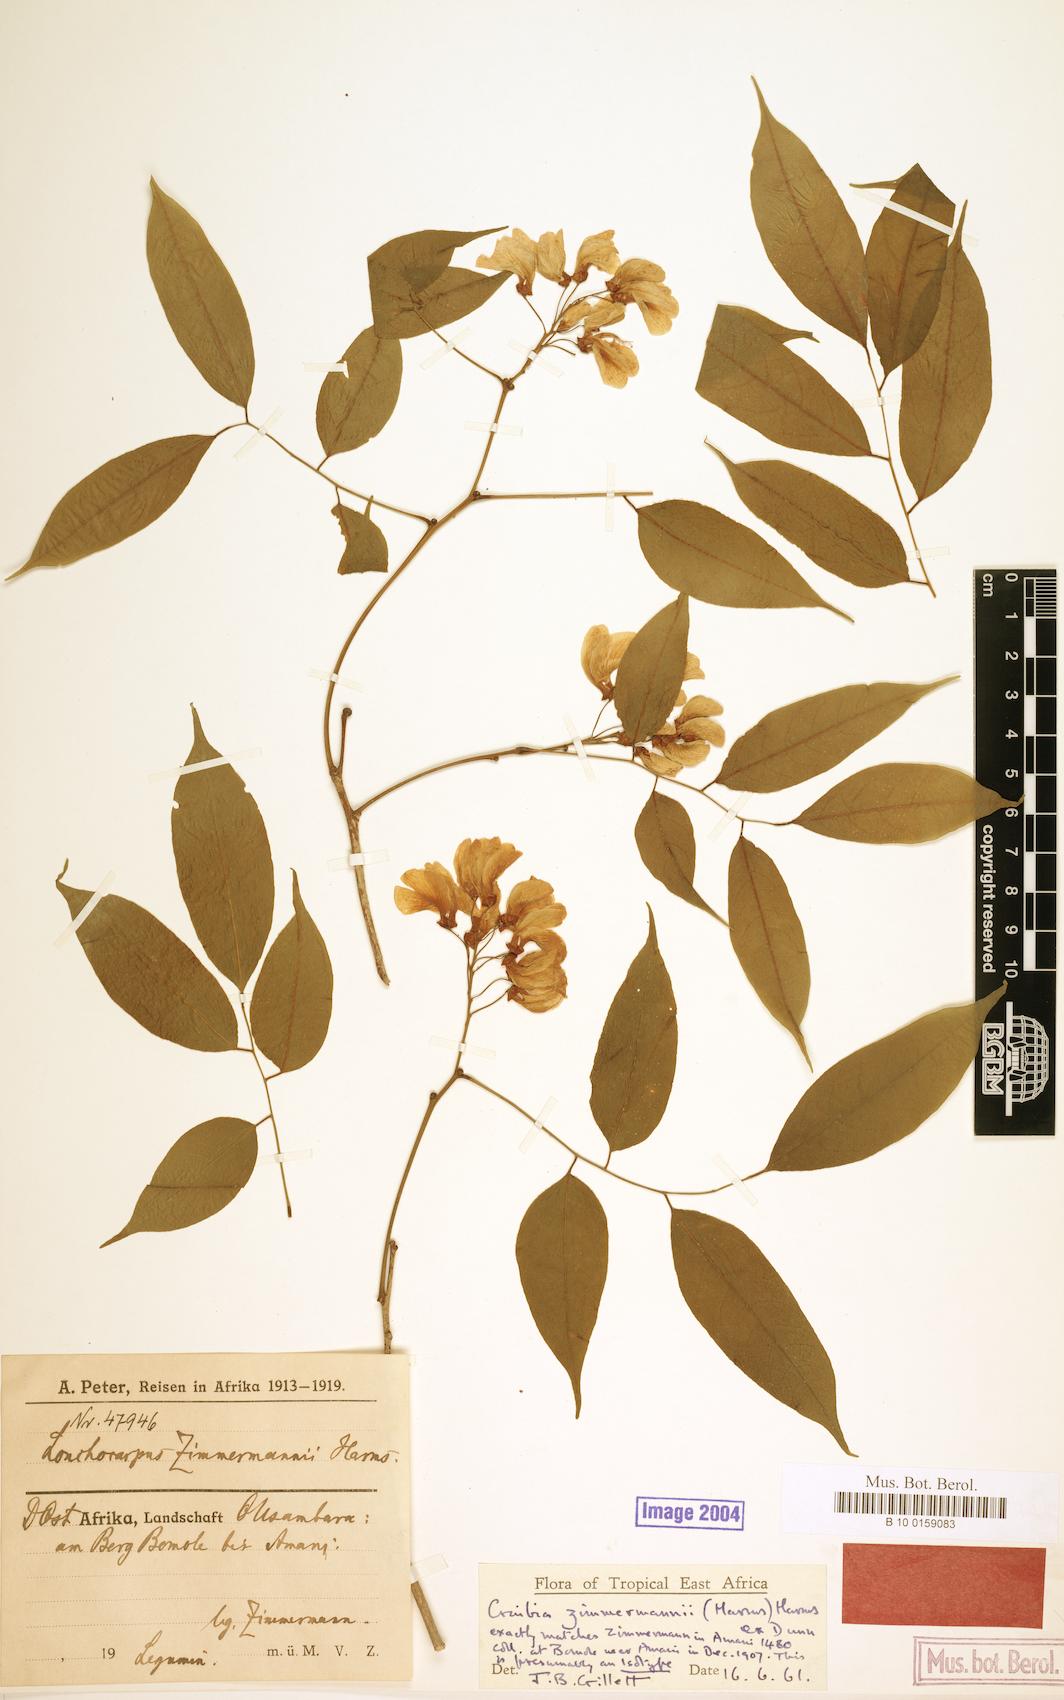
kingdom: Plantae
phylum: Tracheophyta
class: Magnoliopsida
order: Fabales
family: Fabaceae
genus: Craibia
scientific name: Craibia zimmermannii
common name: Sandforest pea-wood
